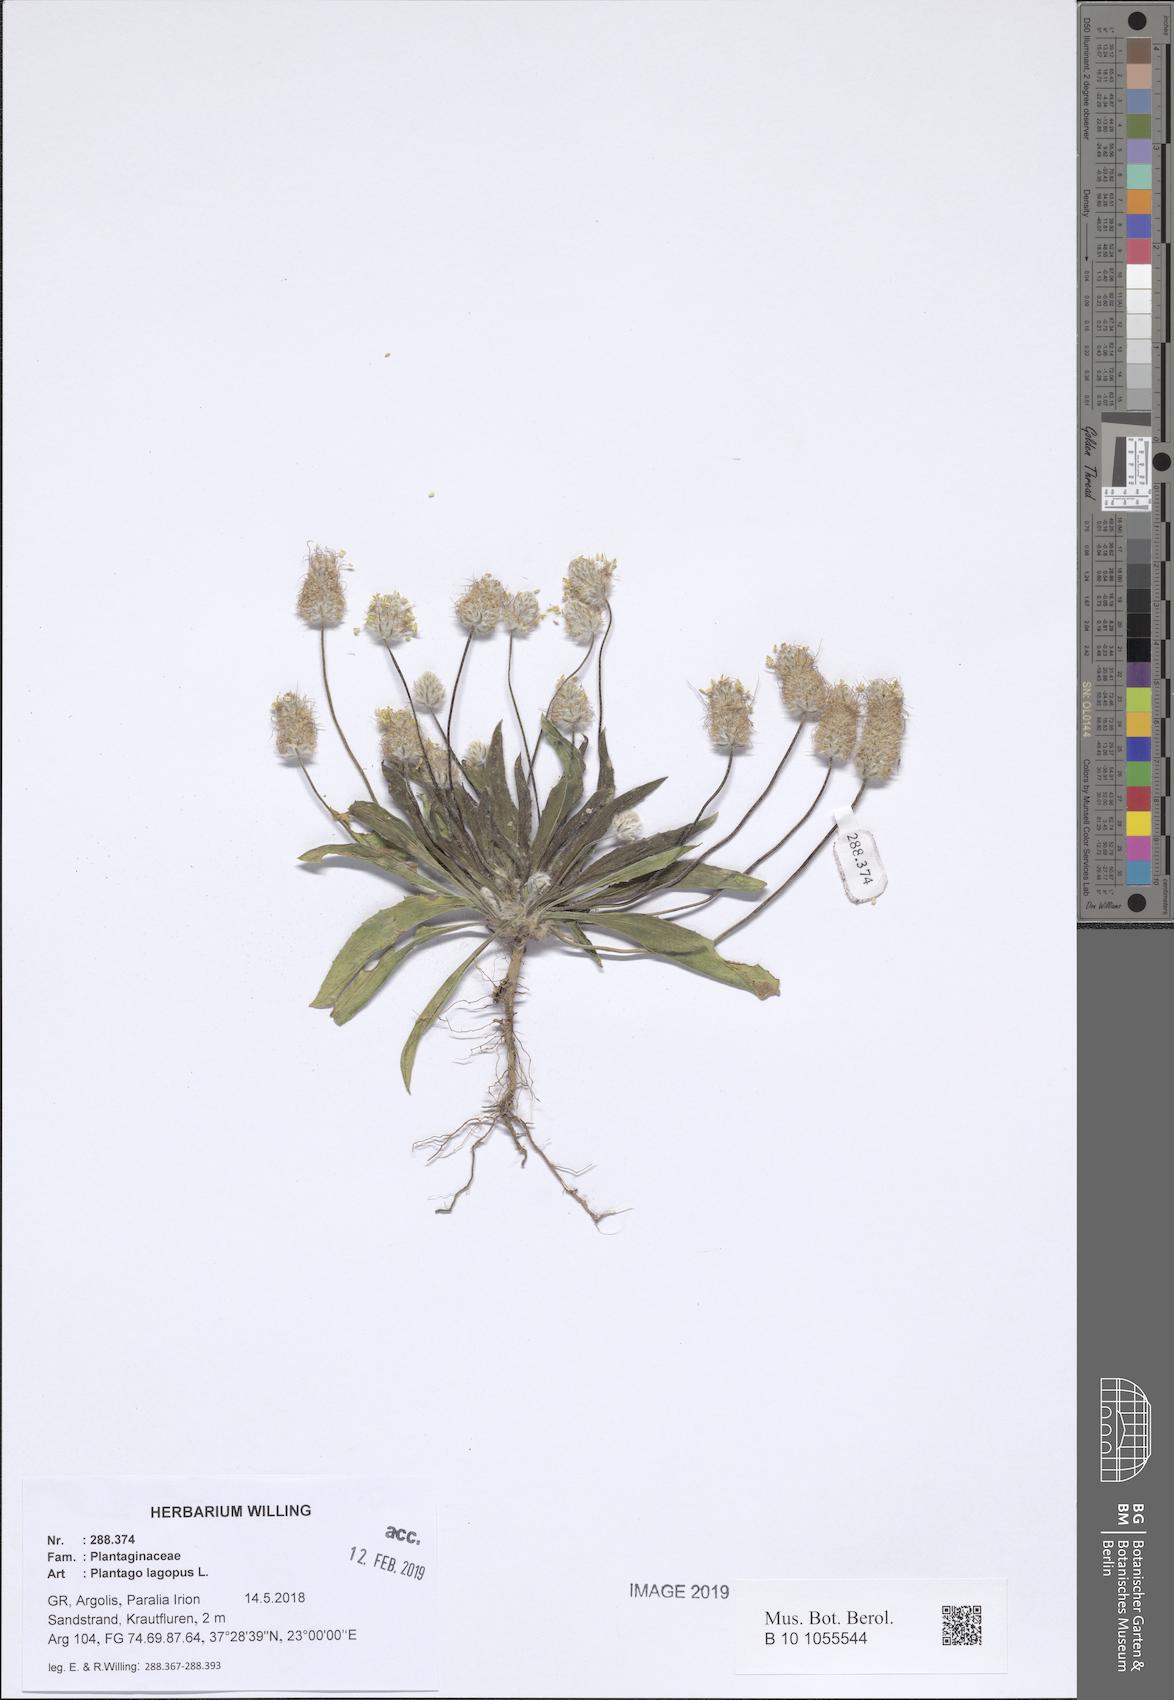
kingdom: Plantae
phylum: Tracheophyta
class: Magnoliopsida
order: Lamiales
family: Plantaginaceae
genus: Plantago
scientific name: Plantago lagopus
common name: Hare-foot plantain
